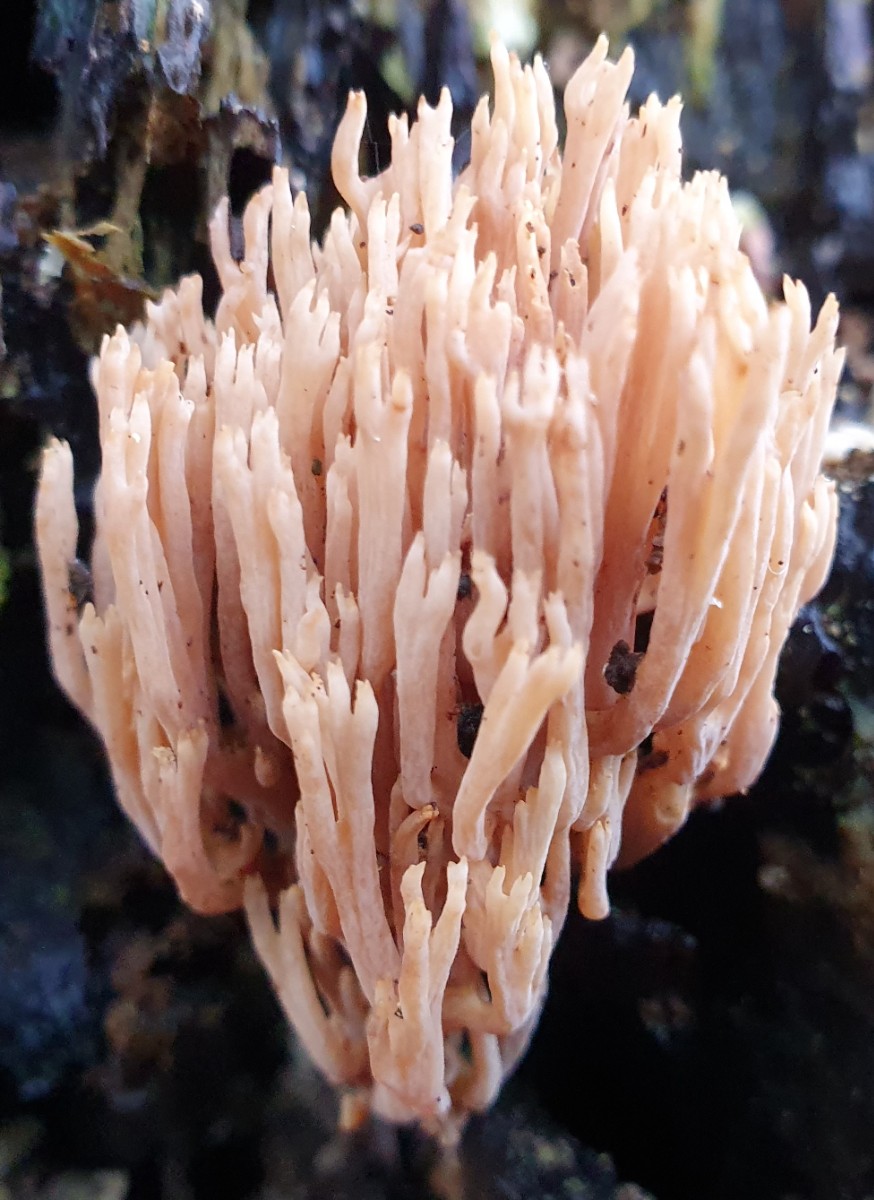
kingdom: Fungi
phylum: Basidiomycota
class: Agaricomycetes
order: Gomphales
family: Gomphaceae
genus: Ramaria
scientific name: Ramaria stricta
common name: rank koralsvamp
